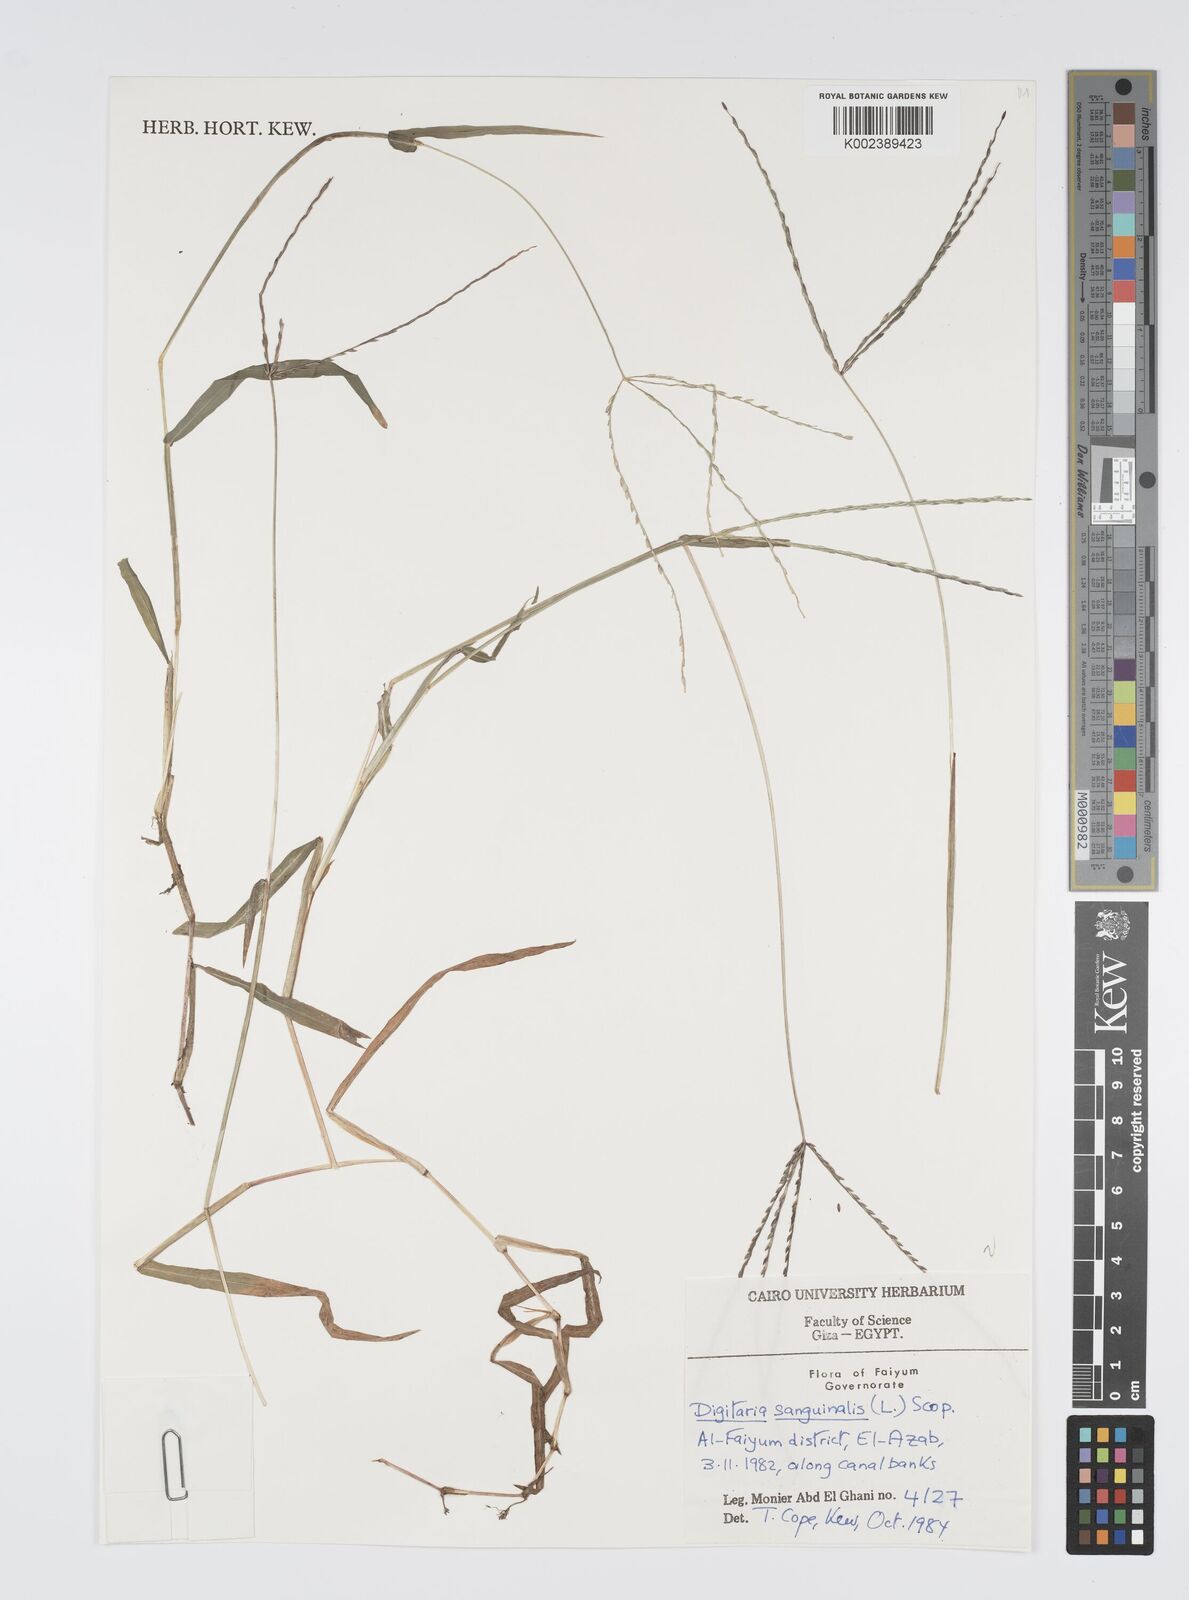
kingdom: Plantae
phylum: Tracheophyta
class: Liliopsida
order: Poales
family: Poaceae
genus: Digitaria
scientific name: Digitaria sanguinalis
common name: Hairy crabgrass
